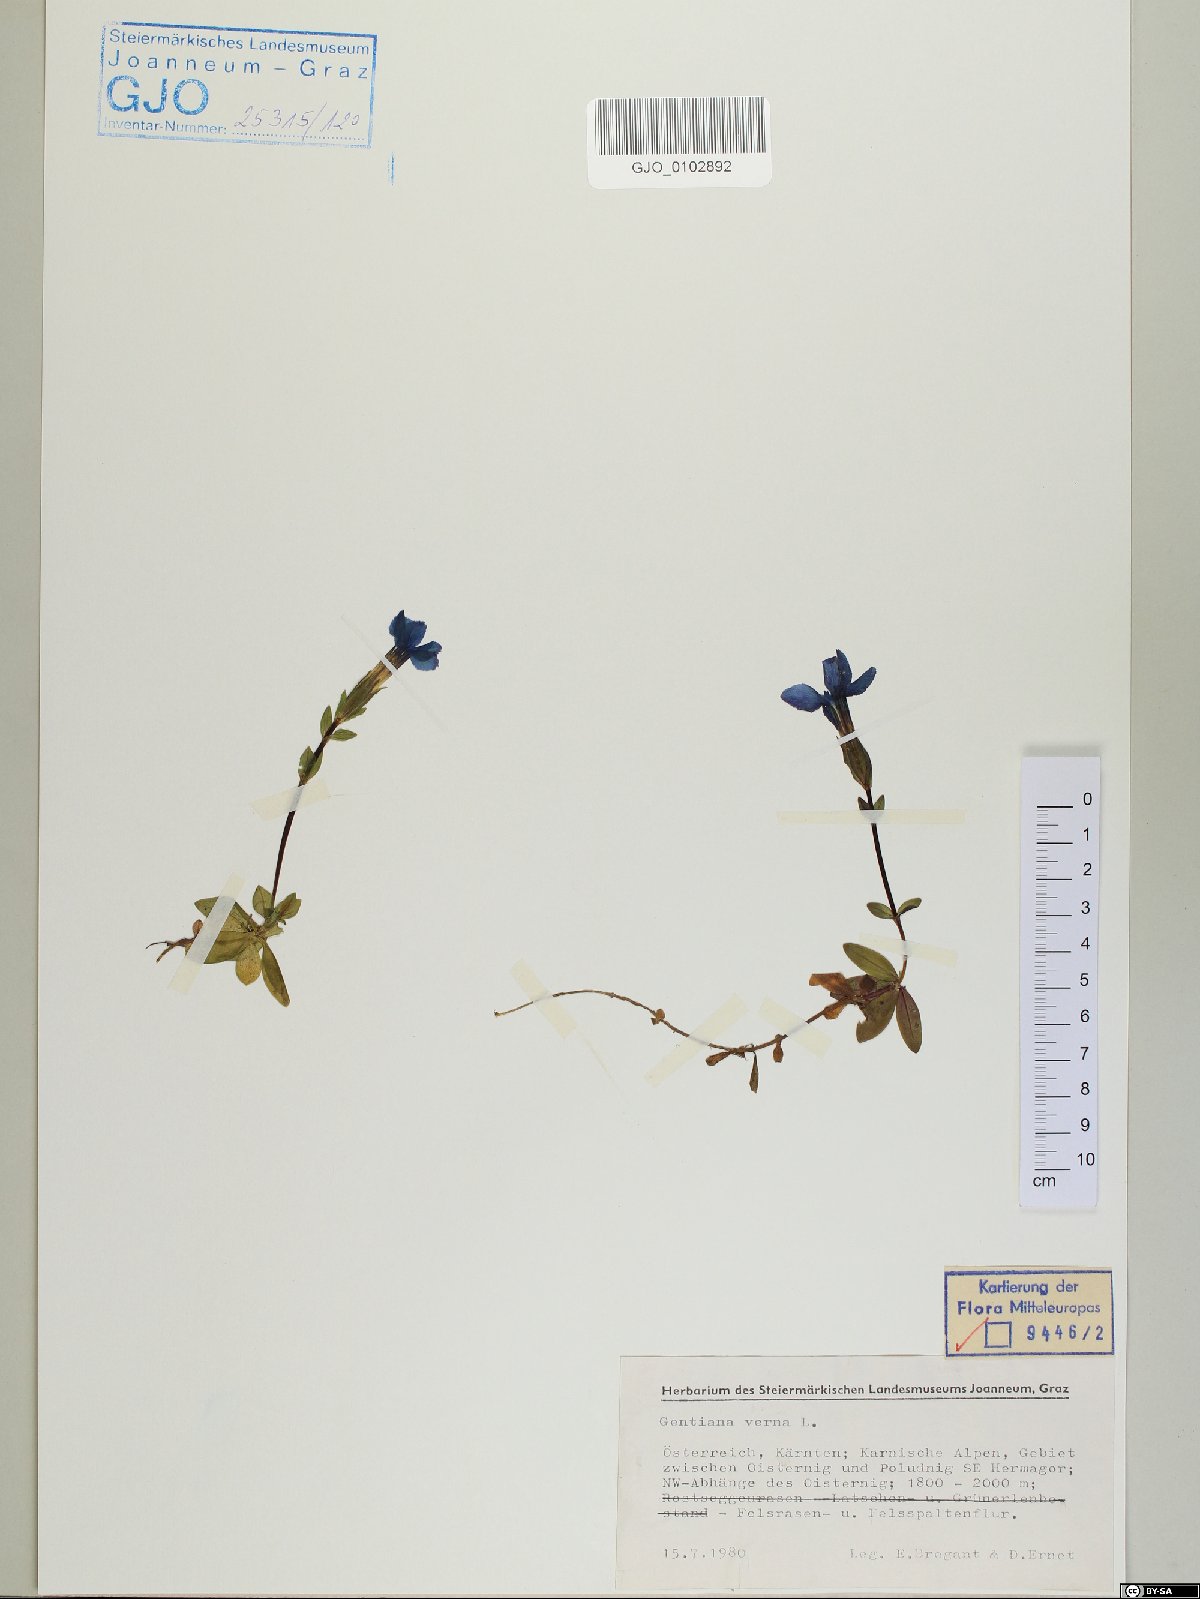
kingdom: Plantae
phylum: Tracheophyta
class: Magnoliopsida
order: Gentianales
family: Gentianaceae
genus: Gentiana
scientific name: Gentiana verna
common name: Spring gentian
